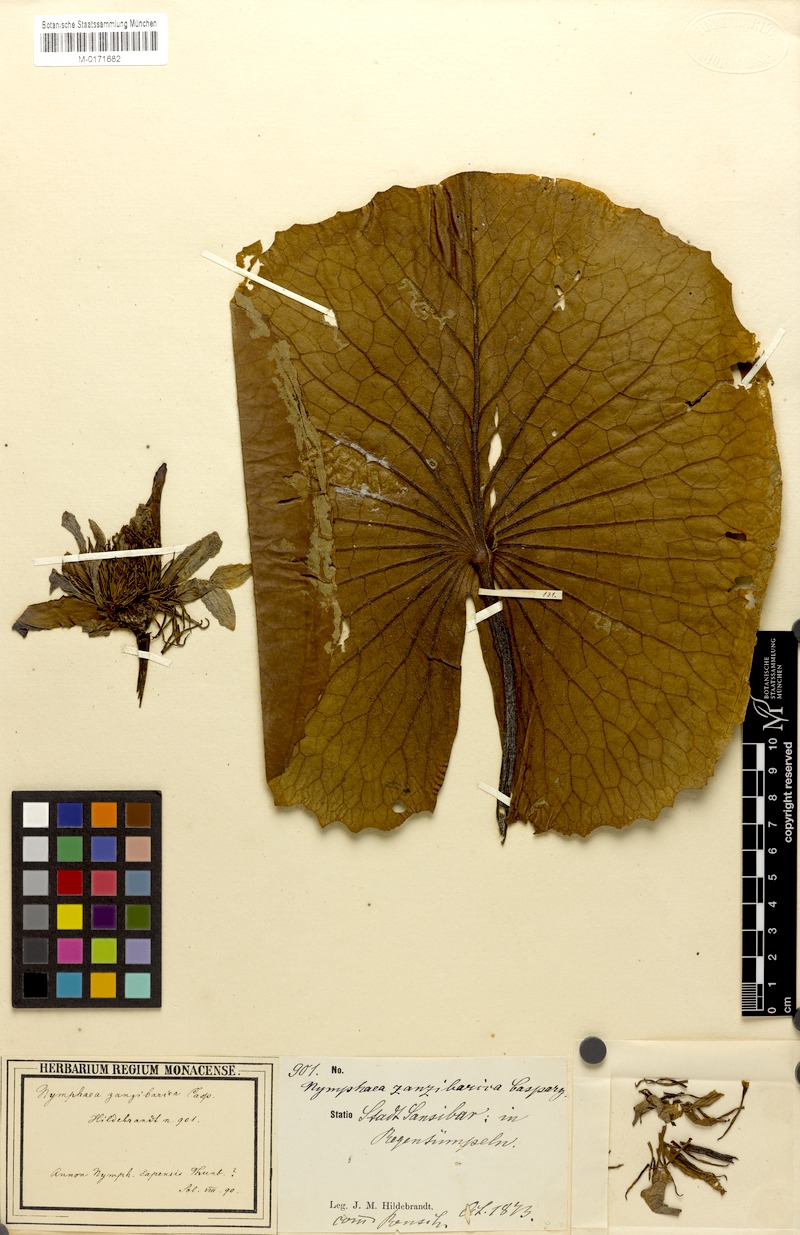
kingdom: Plantae
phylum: Tracheophyta
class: Magnoliopsida
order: Nymphaeales
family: Nymphaeaceae
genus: Nymphaea
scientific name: Nymphaea maculata
